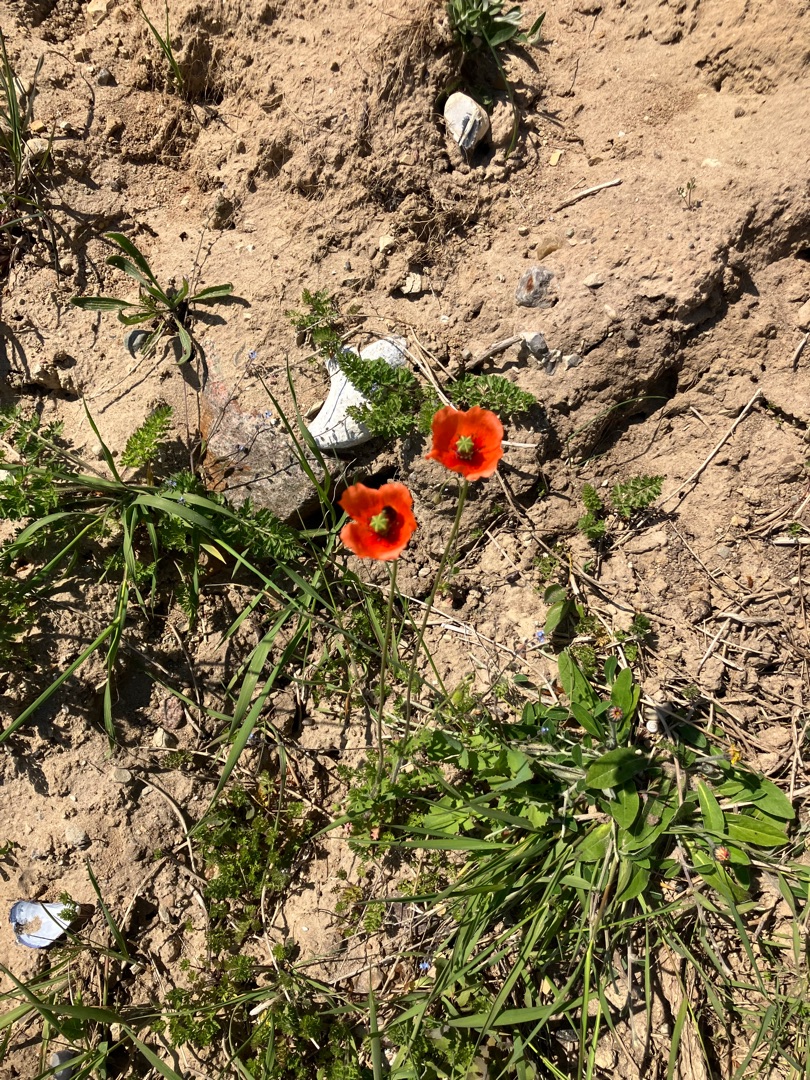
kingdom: Plantae
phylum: Tracheophyta
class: Magnoliopsida
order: Ranunculales
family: Papaveraceae
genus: Papaver
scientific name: Papaver dubium
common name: Gærde-valmue
